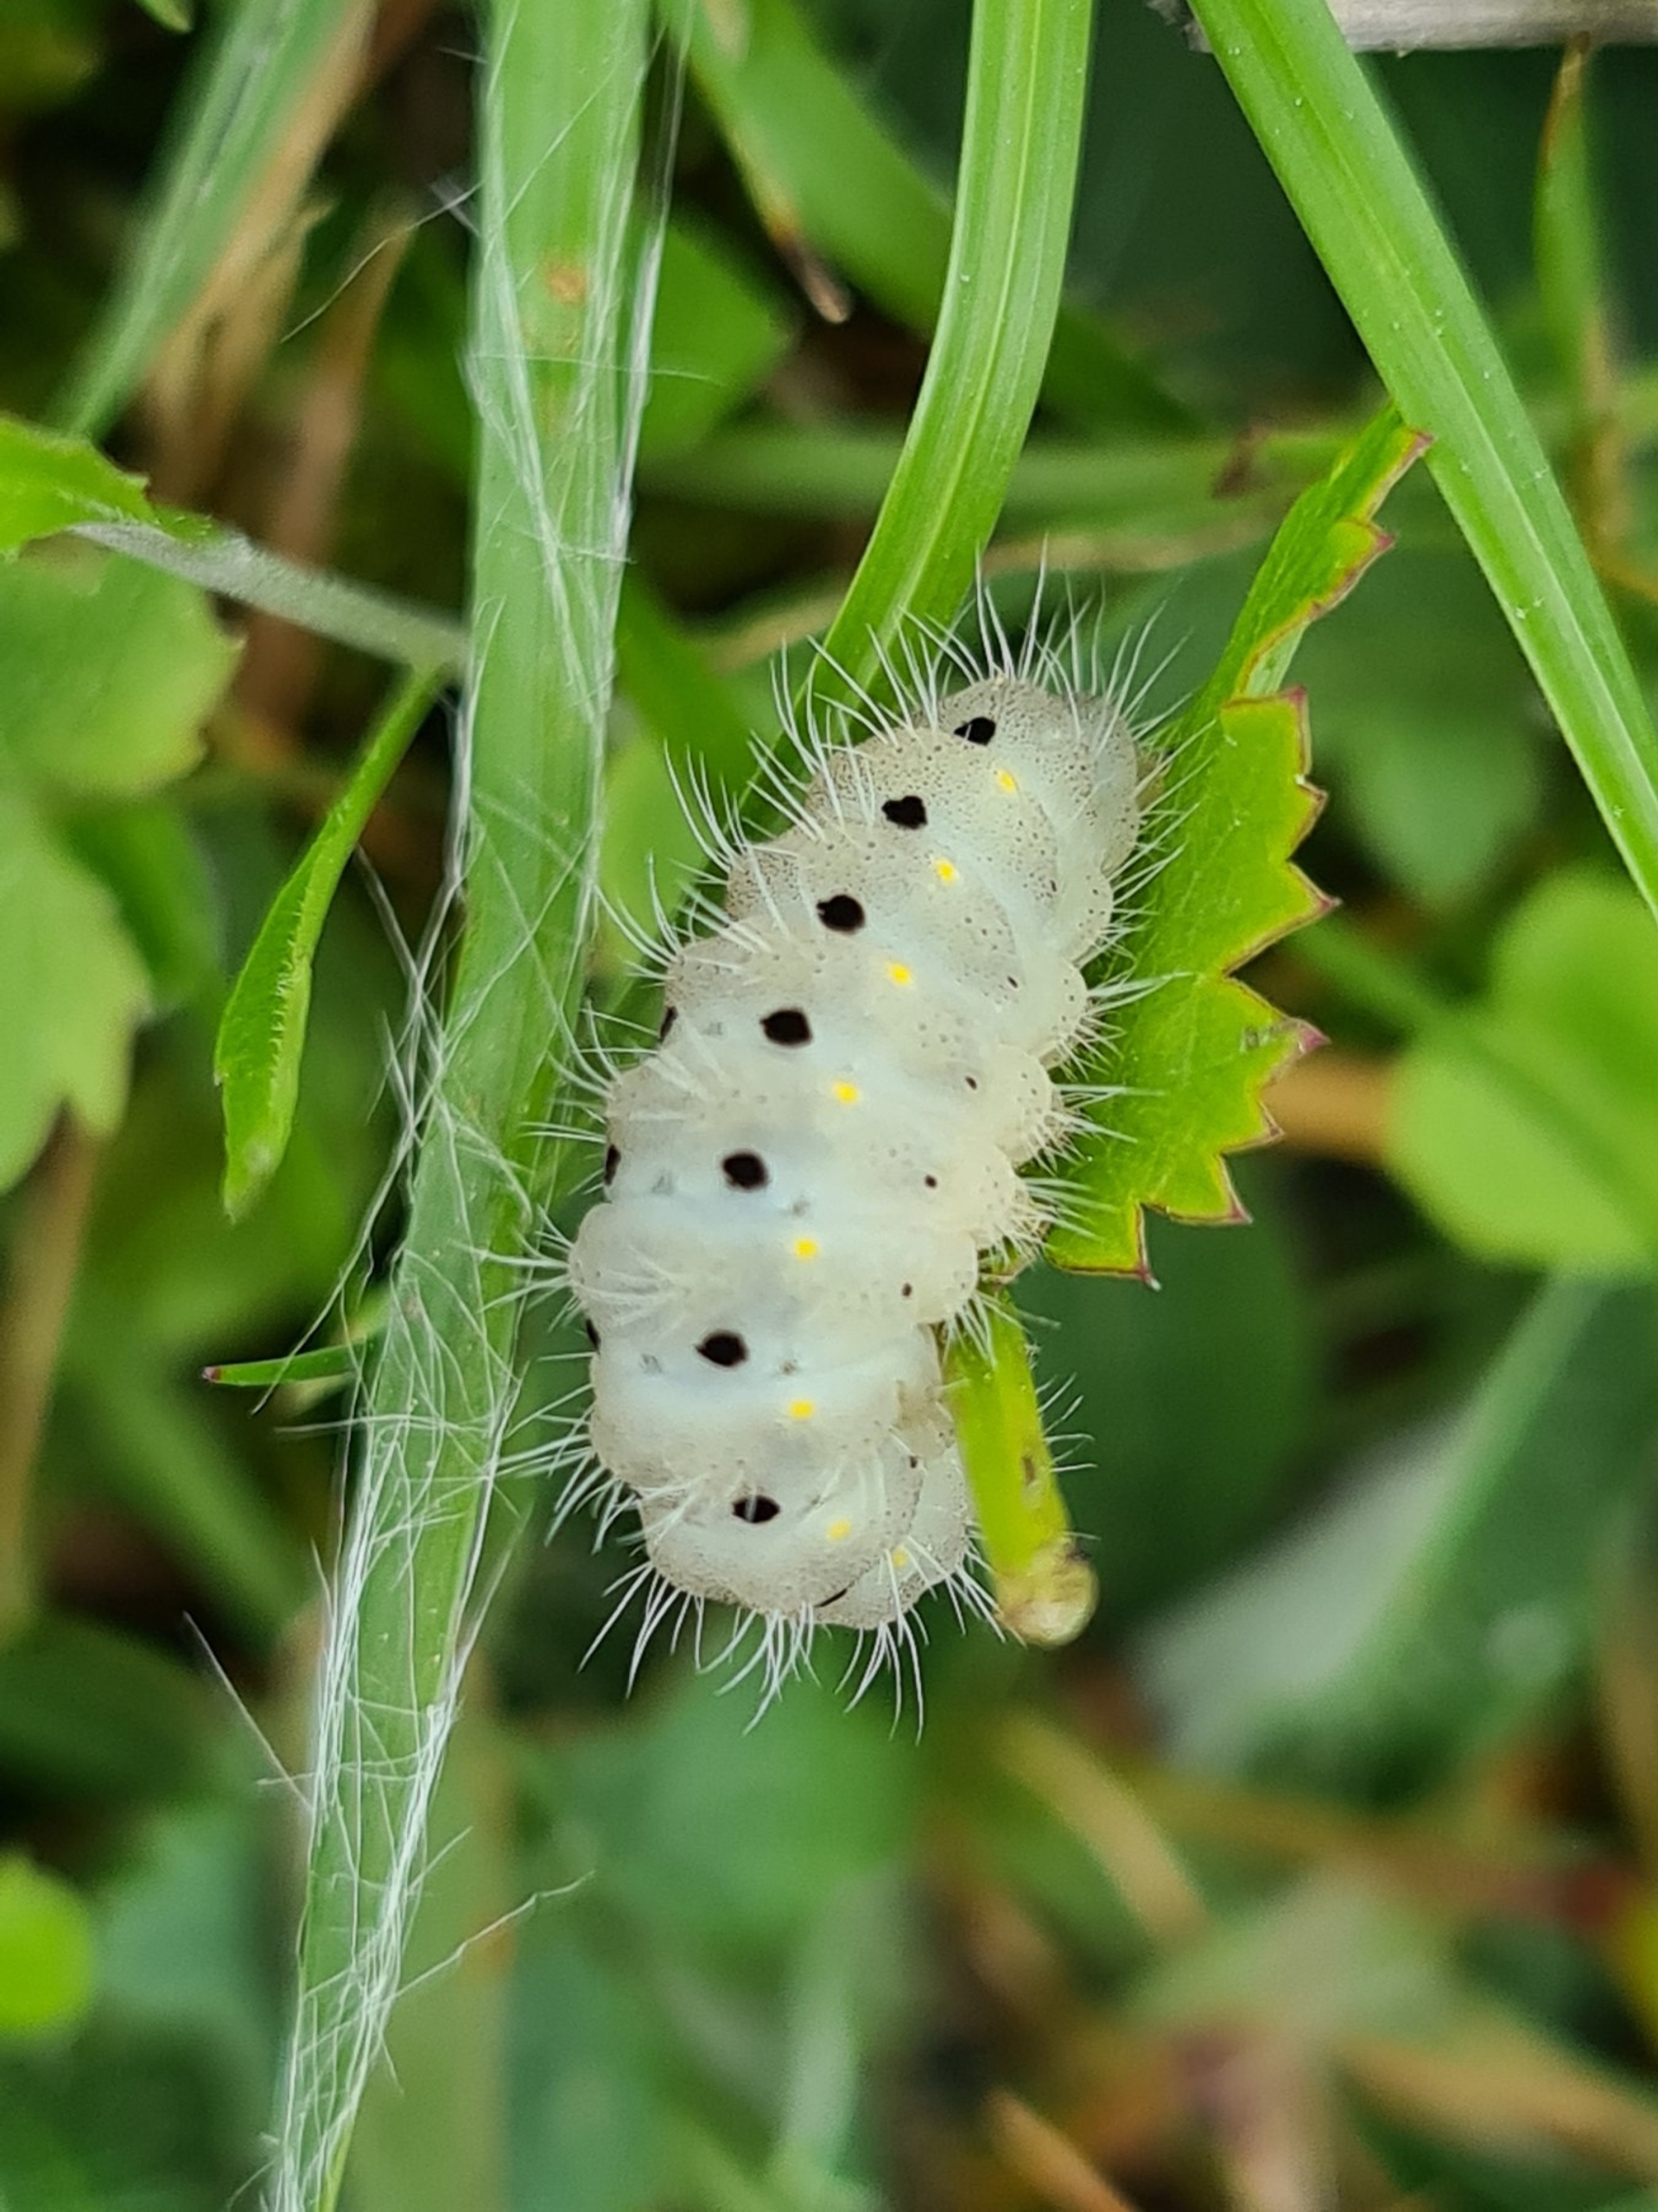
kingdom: Animalia
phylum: Arthropoda
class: Insecta
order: Lepidoptera
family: Zygaenidae
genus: Zygaena
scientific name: Zygaena minos
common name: Pimpernelkøllesværmer
